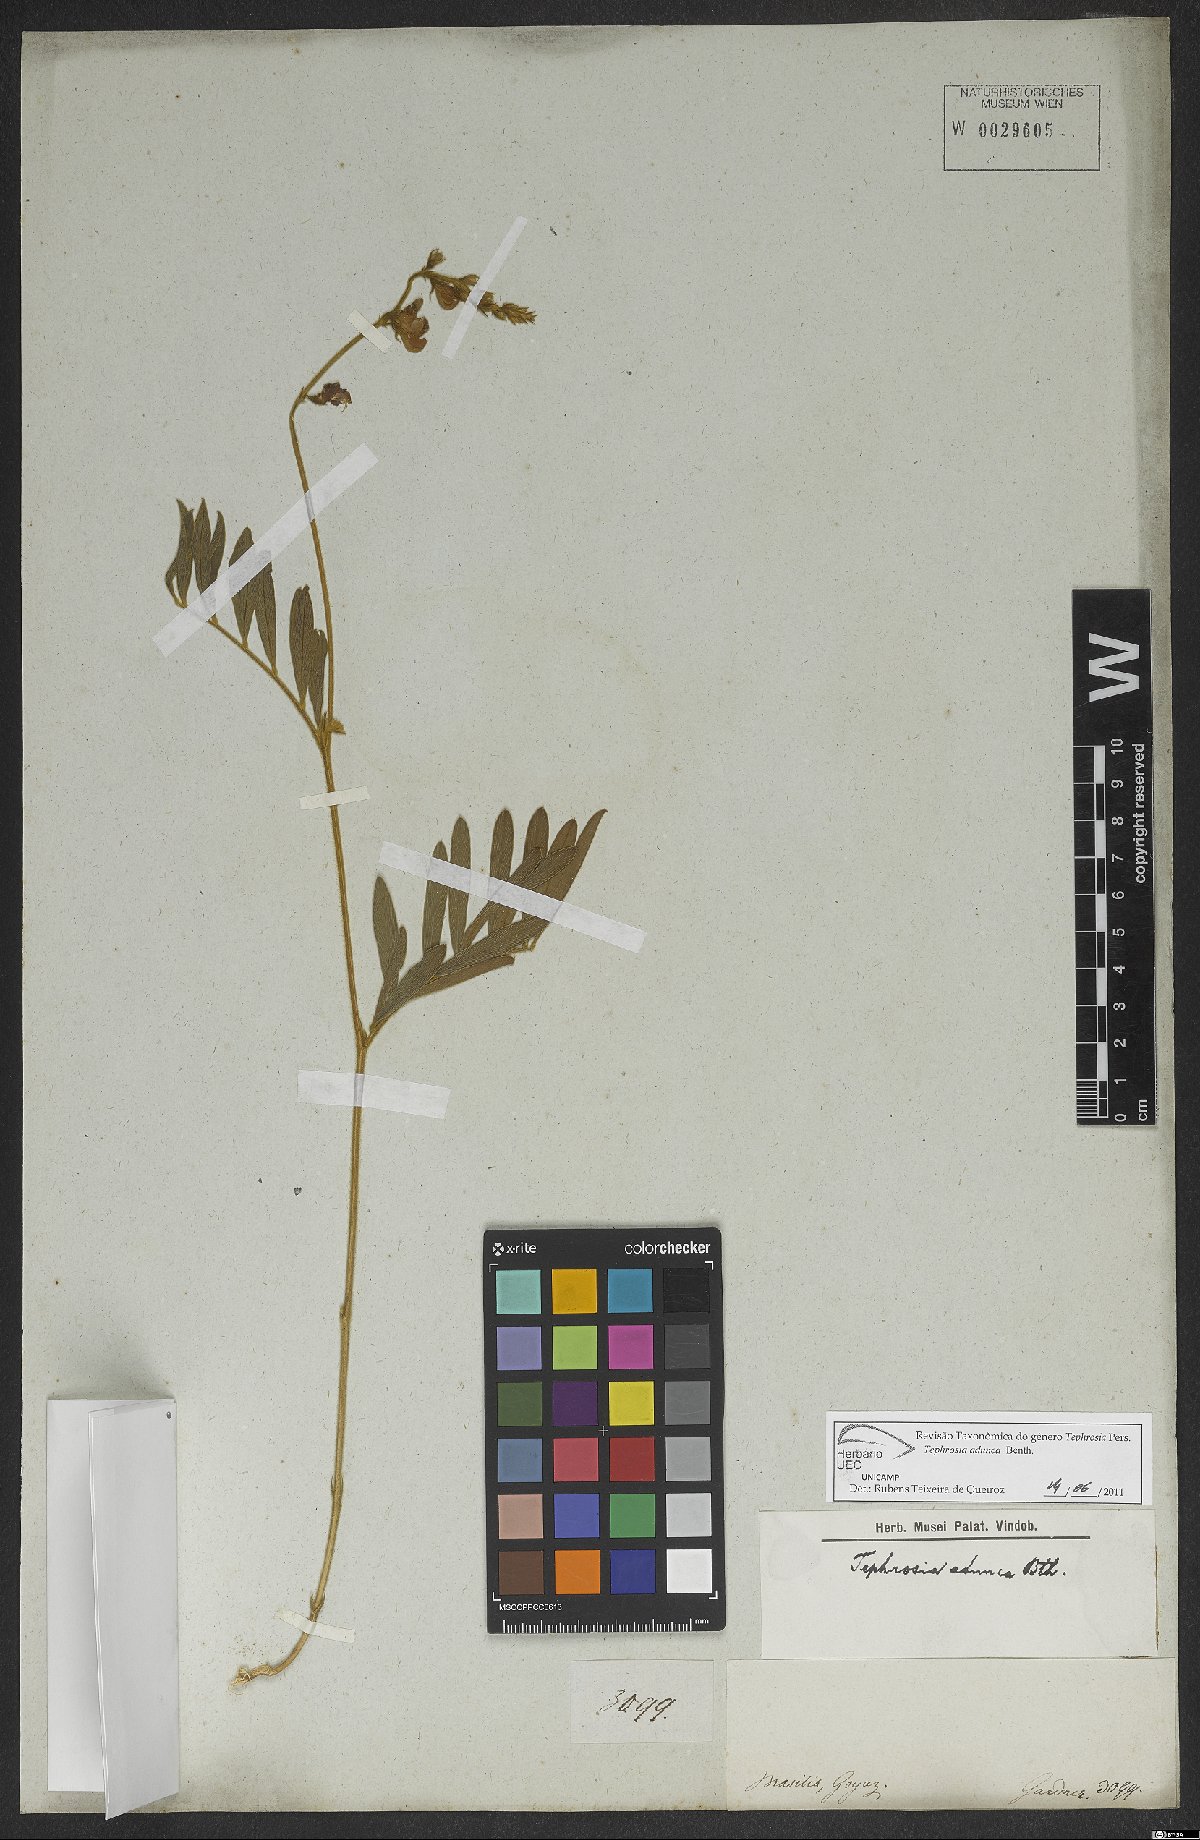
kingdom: Plantae
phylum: Tracheophyta
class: Magnoliopsida
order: Fabales
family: Fabaceae
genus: Tephrosia
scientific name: Tephrosia adunca
